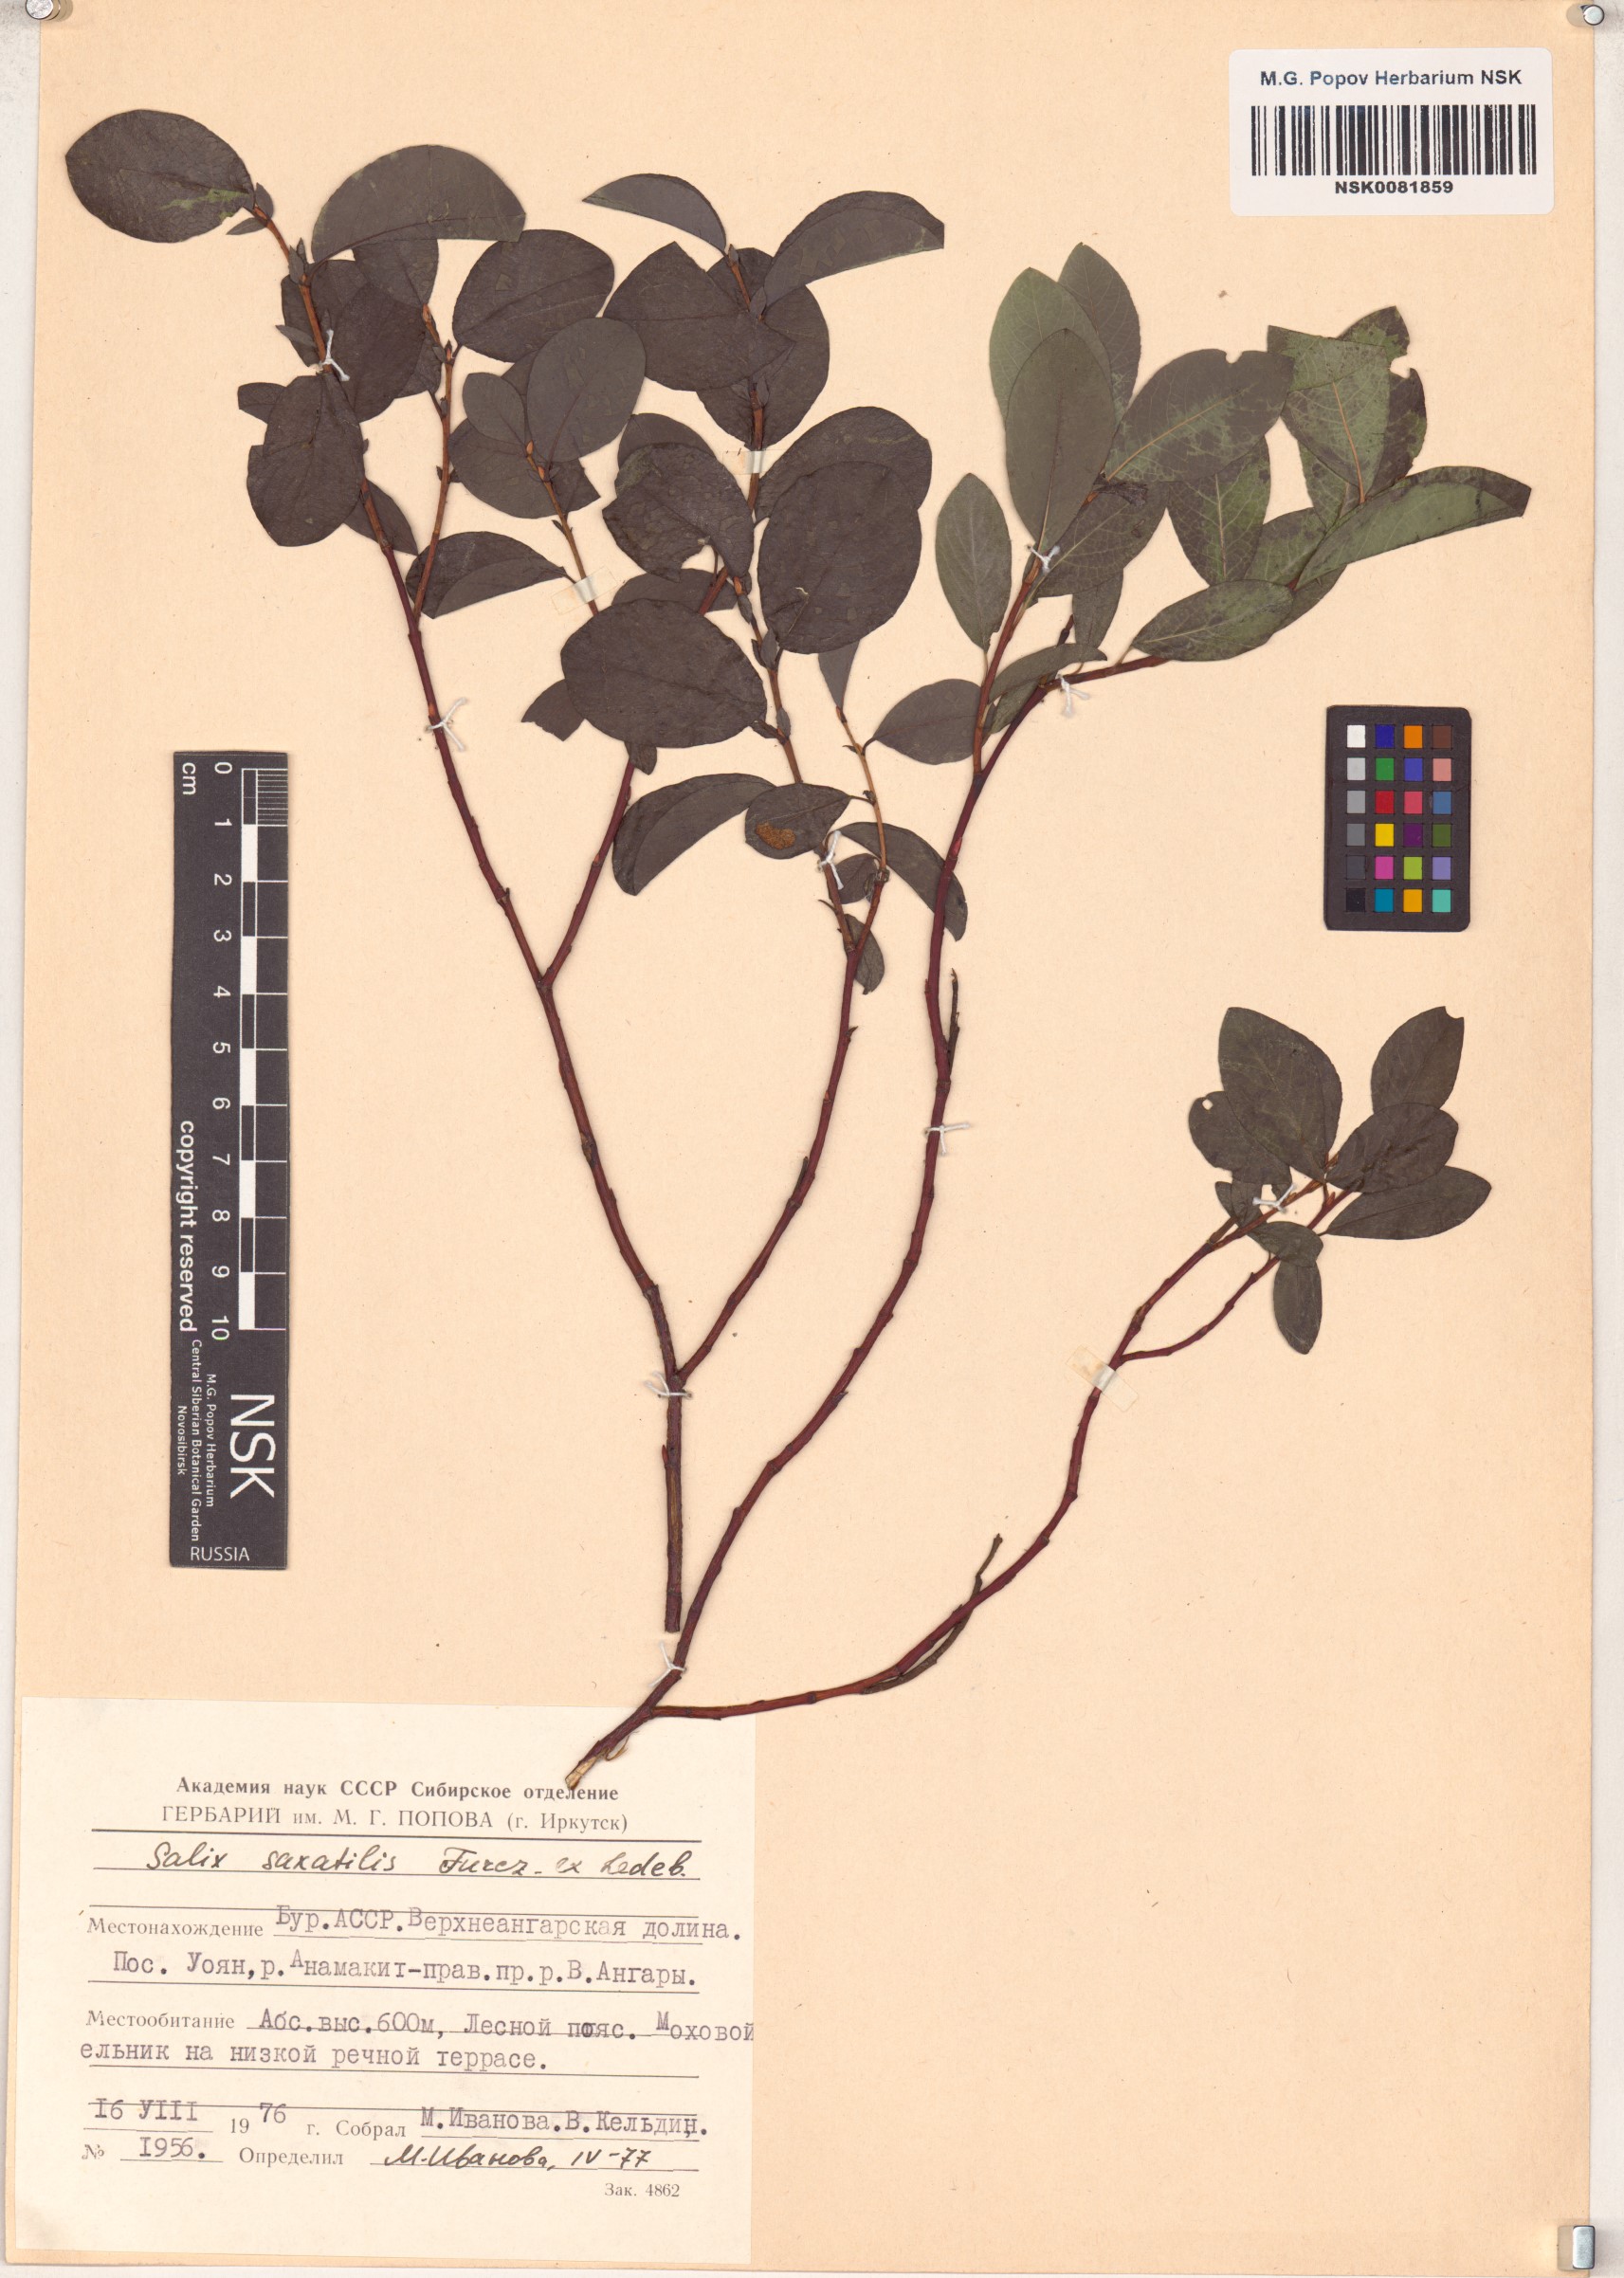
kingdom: Plantae
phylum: Tracheophyta
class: Magnoliopsida
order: Malpighiales
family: Salicaceae
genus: Salix
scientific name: Salix saxatilis
